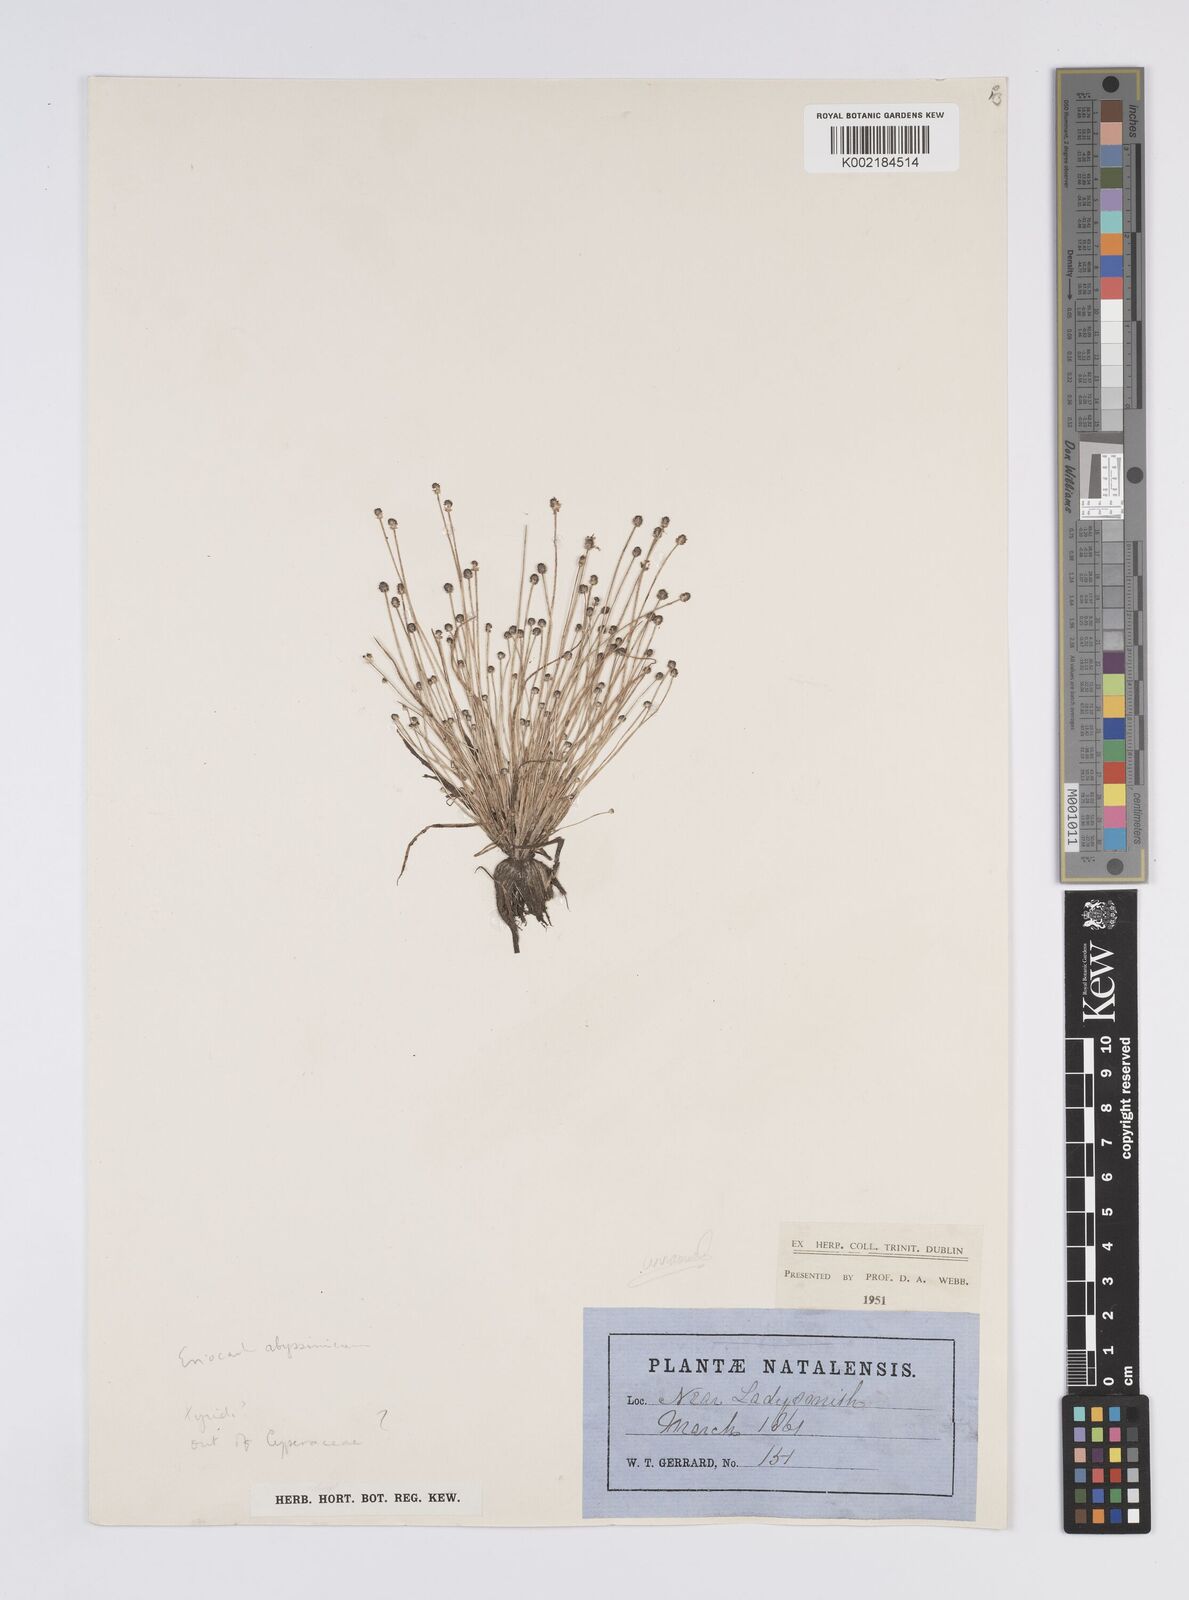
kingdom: Plantae
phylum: Tracheophyta
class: Liliopsida
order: Poales
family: Eriocaulaceae
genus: Eriocaulon
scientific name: Eriocaulon abyssinicum
